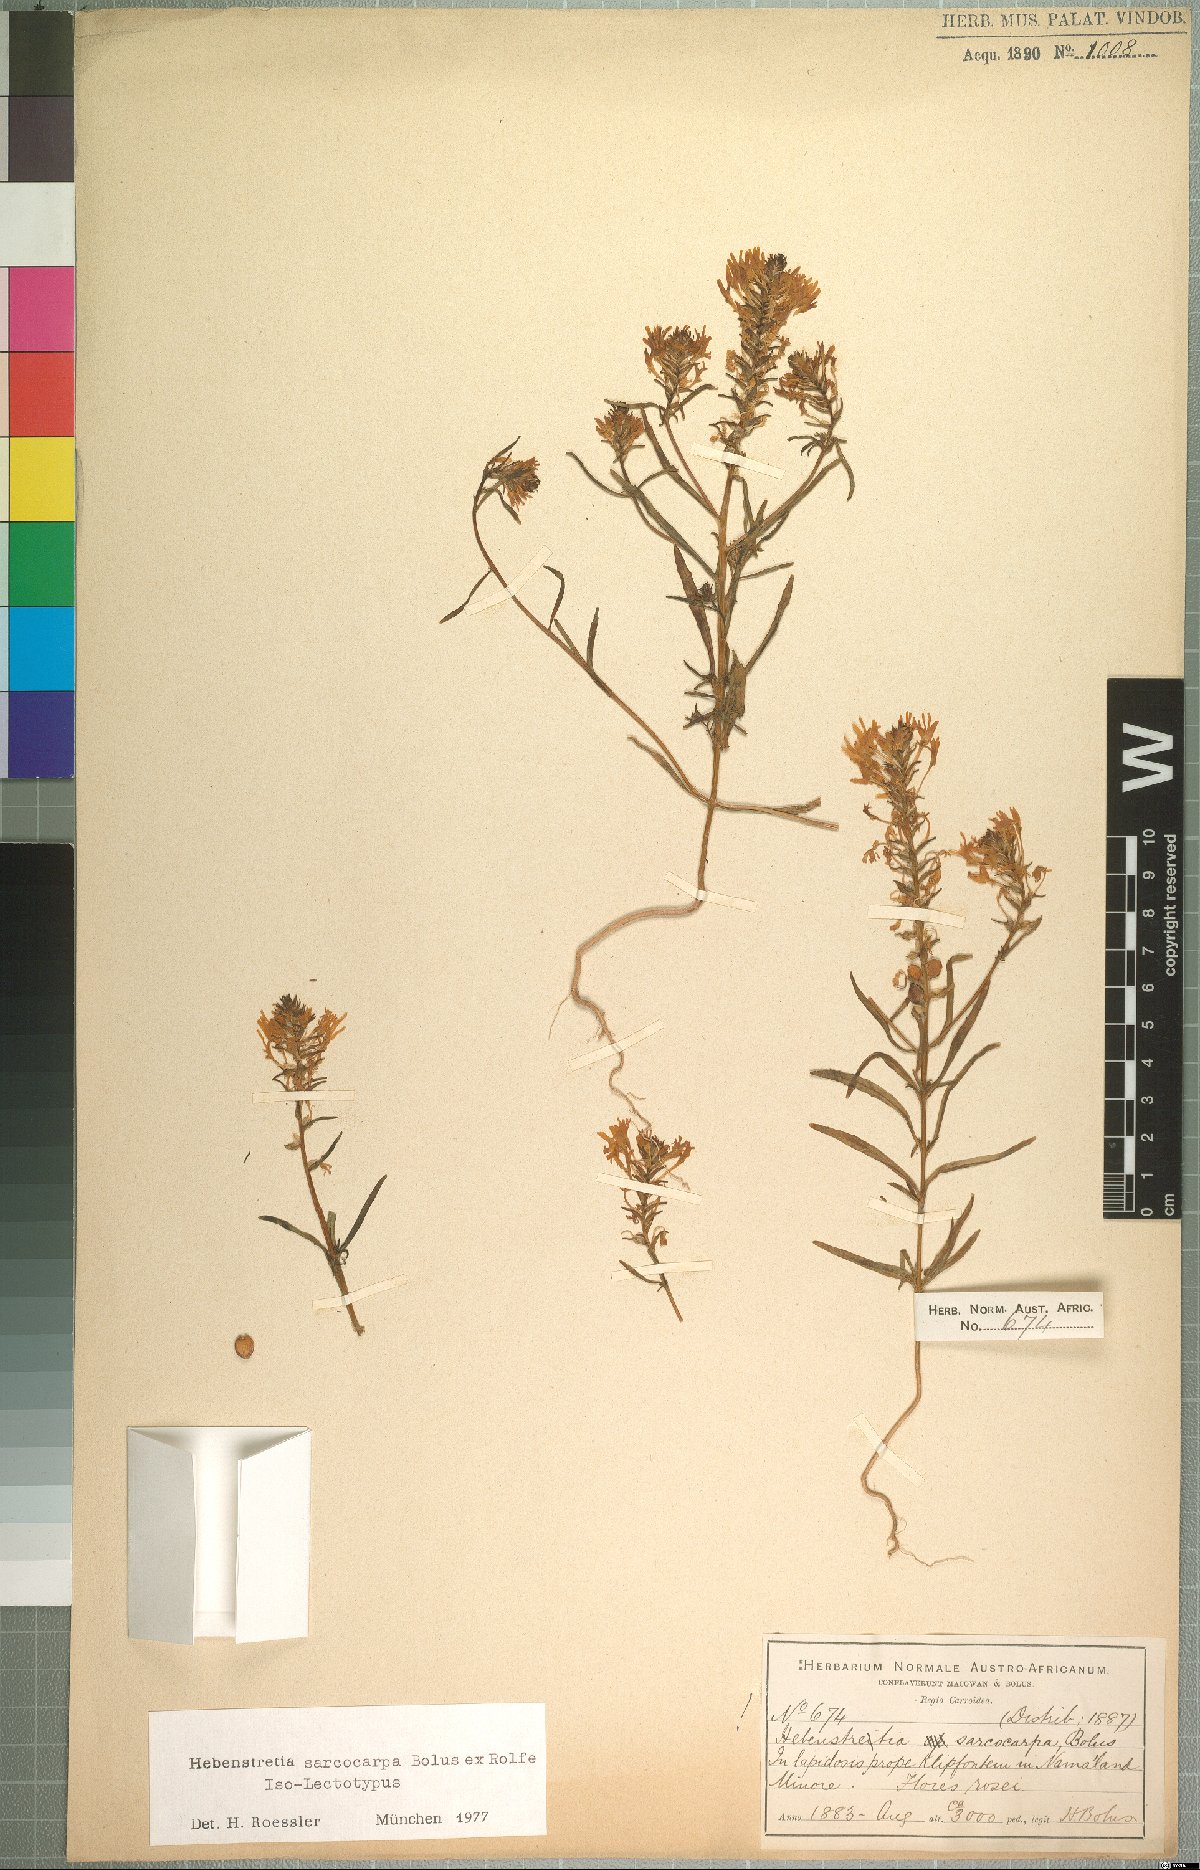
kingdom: Plantae
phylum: Tracheophyta
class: Magnoliopsida
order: Lamiales
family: Scrophulariaceae
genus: Hebenstretia
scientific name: Hebenstretia sarcocarpa
